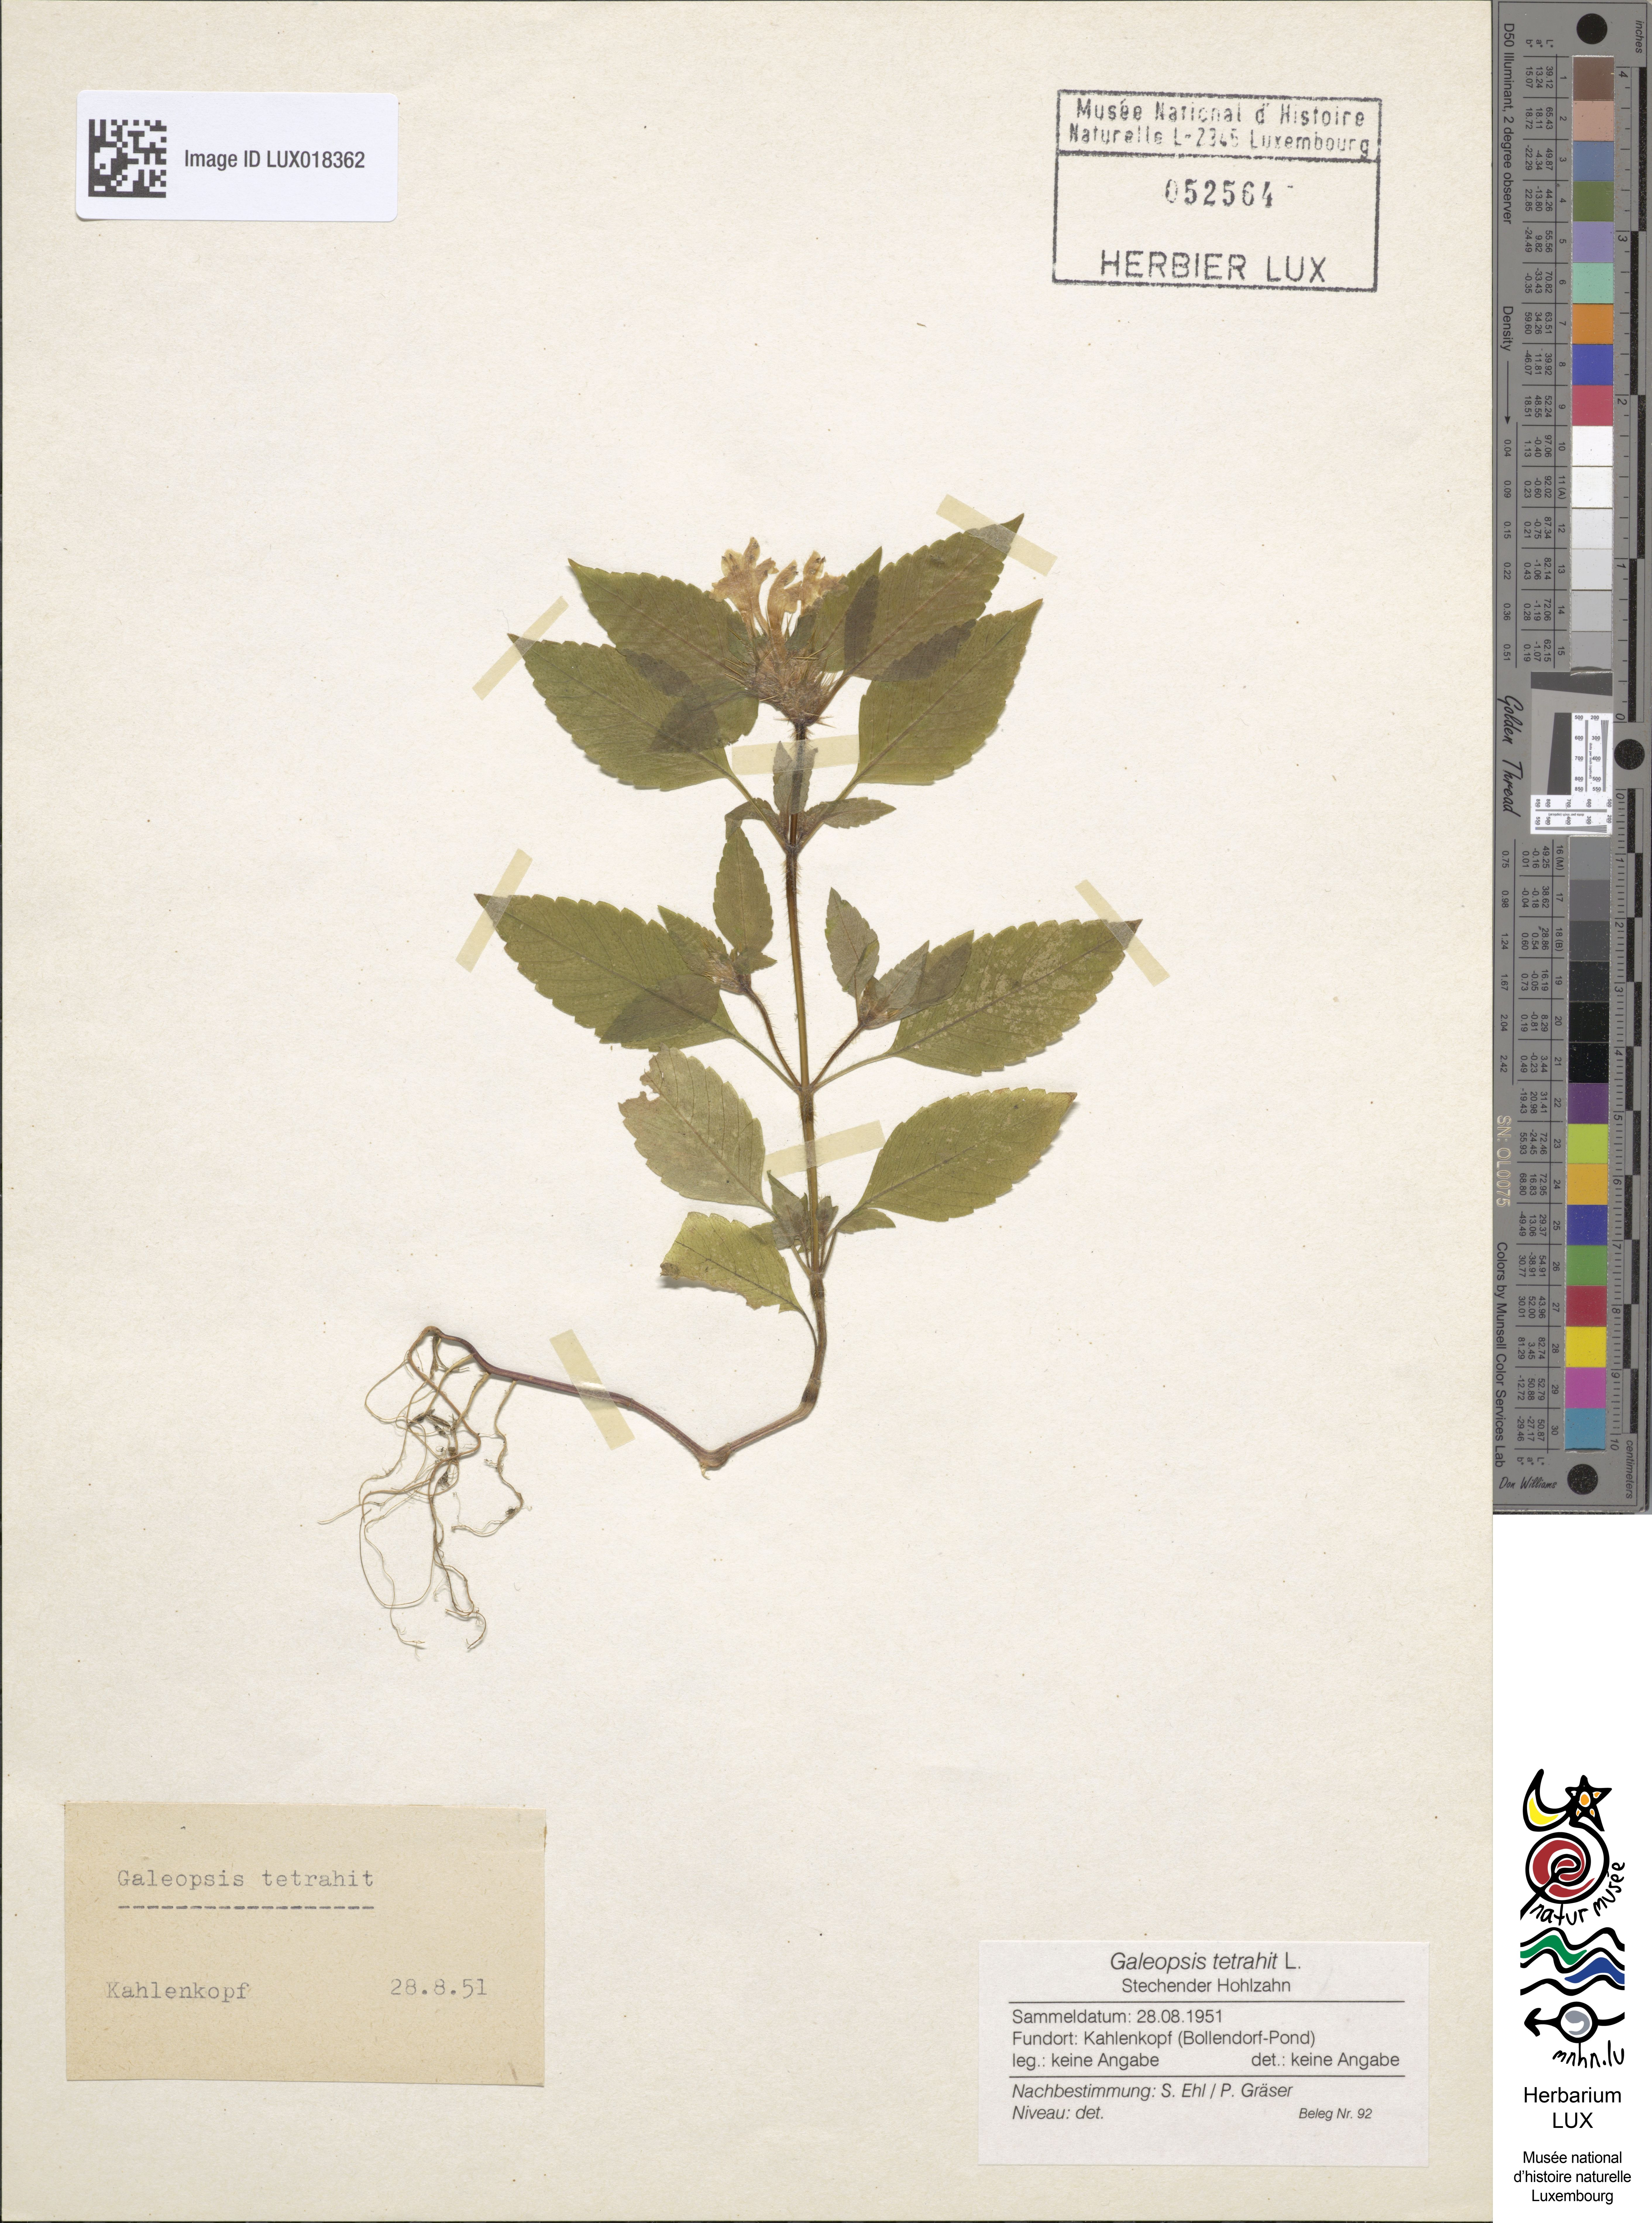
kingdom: Plantae
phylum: Tracheophyta
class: Magnoliopsida
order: Lamiales
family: Lamiaceae
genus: Galeopsis
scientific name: Galeopsis tetrahit
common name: Common hemp-nettle
